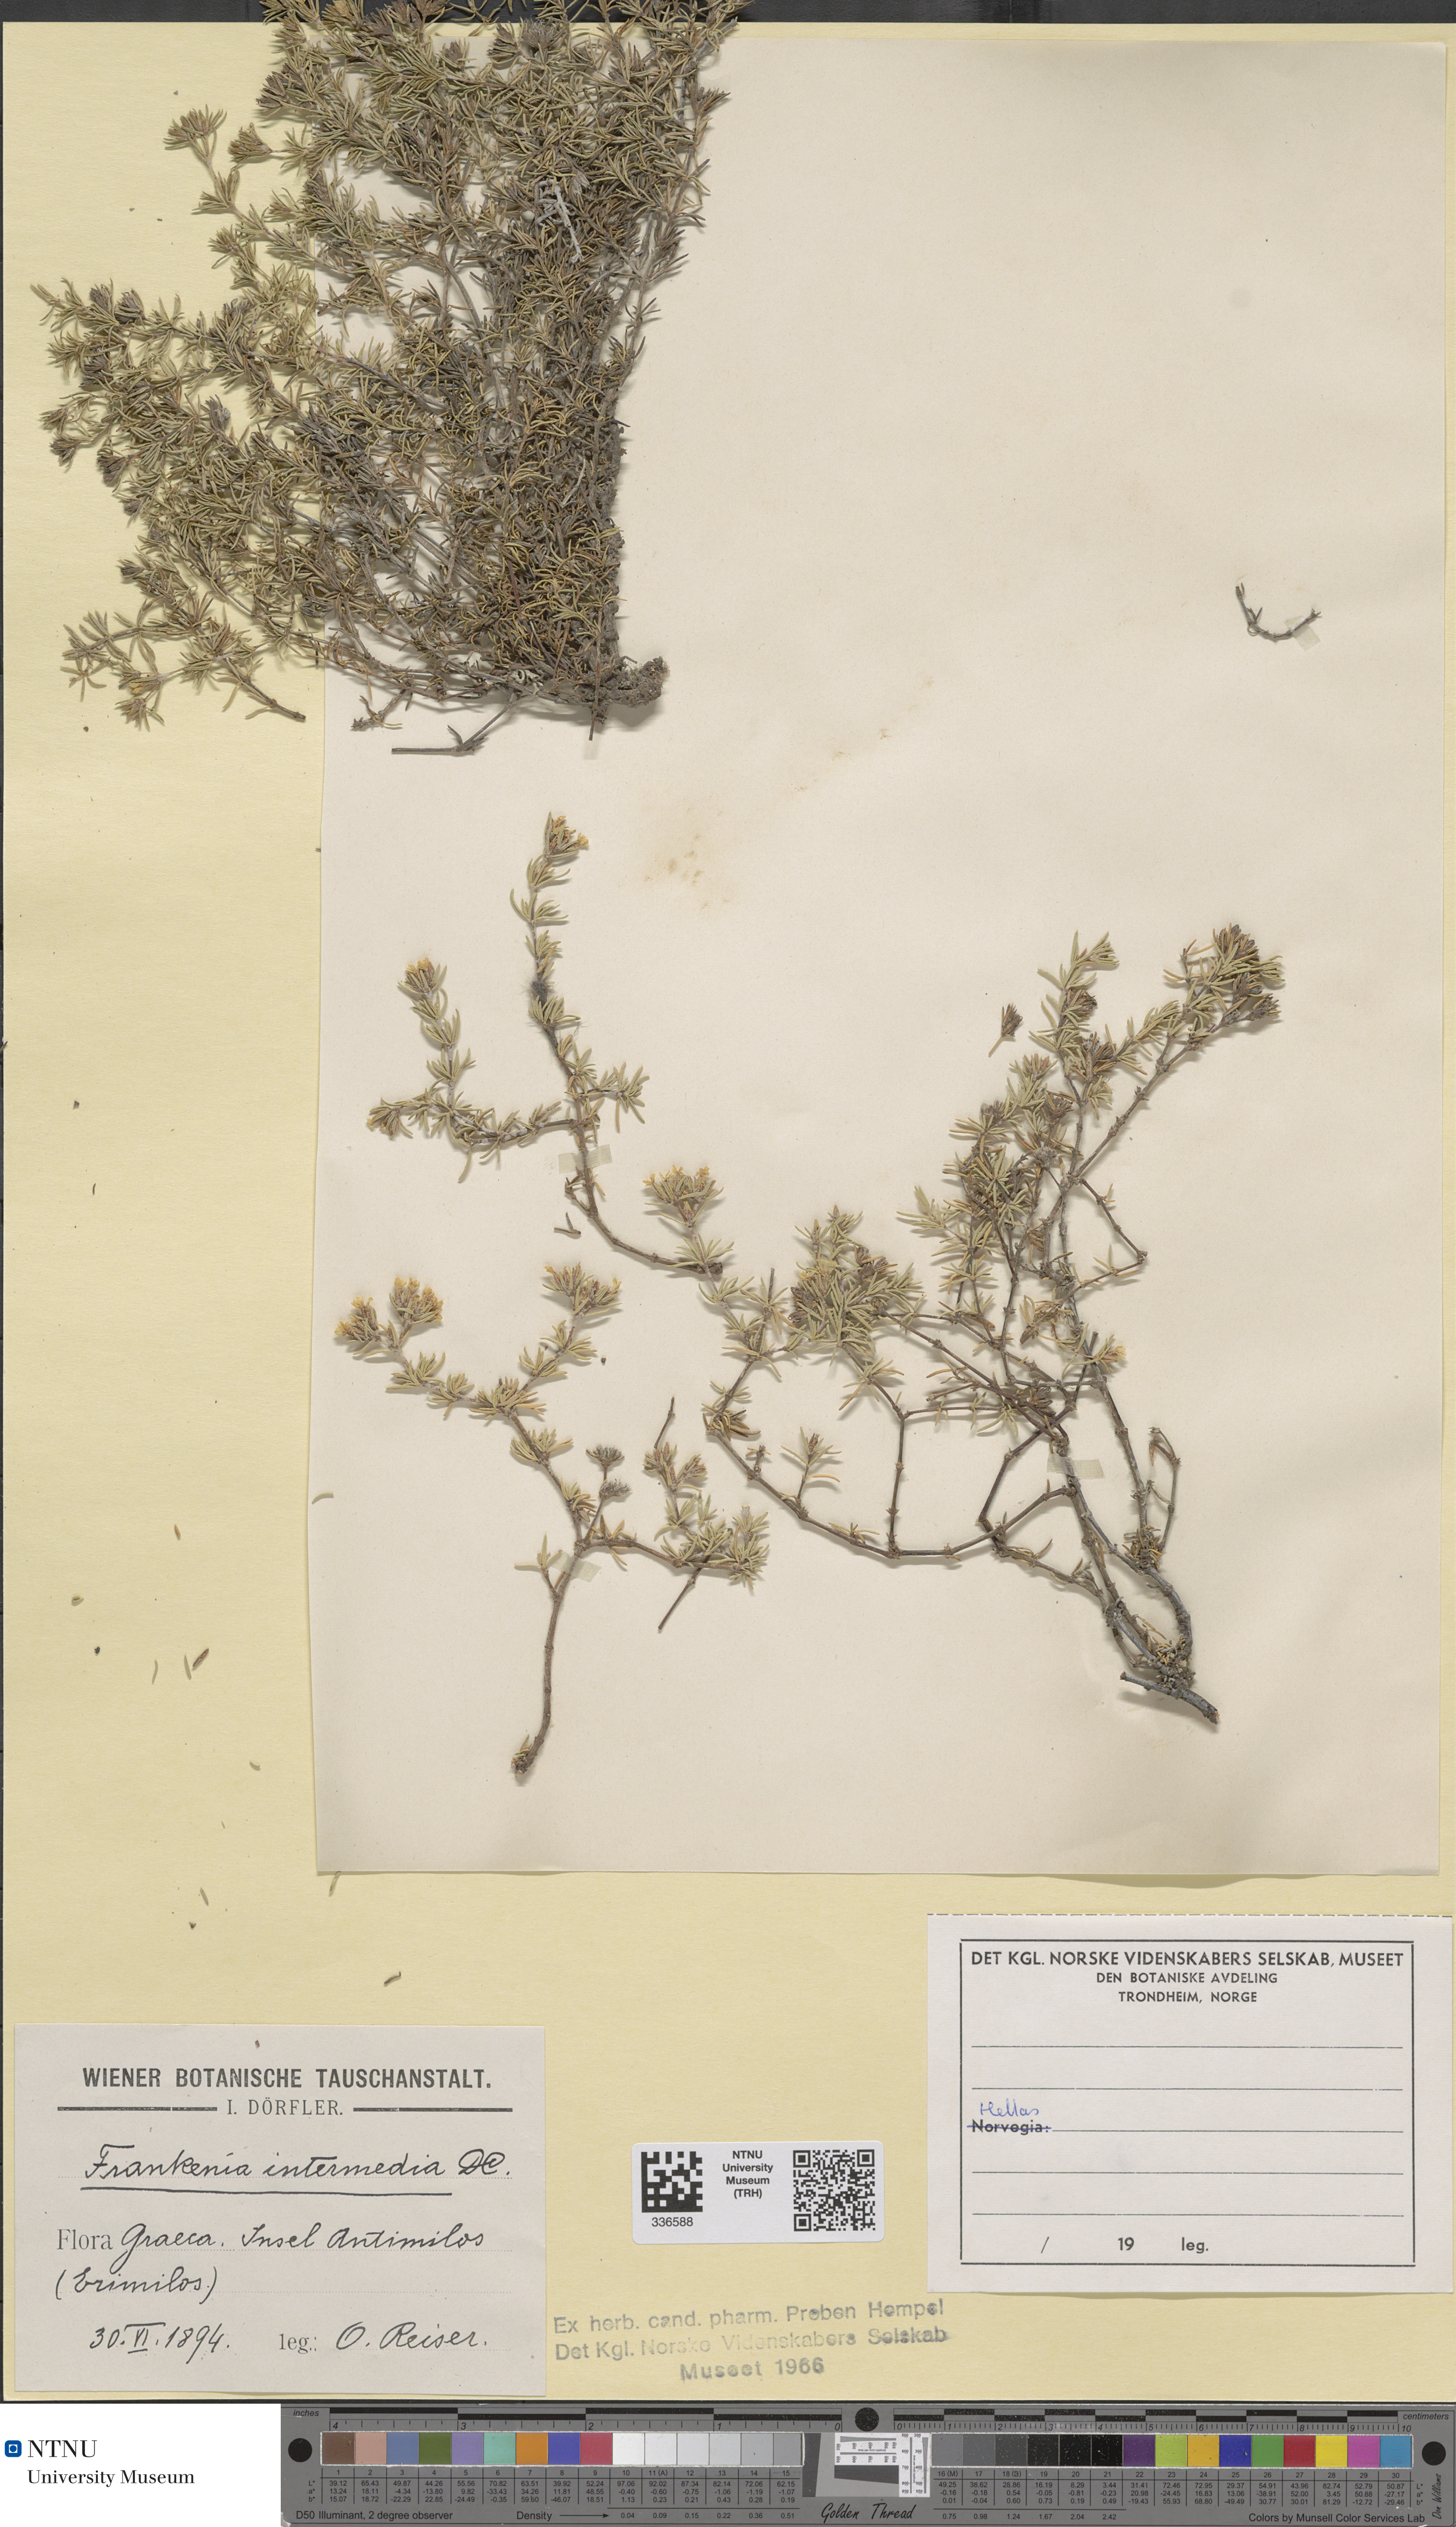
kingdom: Plantae
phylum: Tracheophyta
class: Magnoliopsida
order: Caryophyllales
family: Frankeniaceae
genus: Frankenia
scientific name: Frankenia hirsuta
